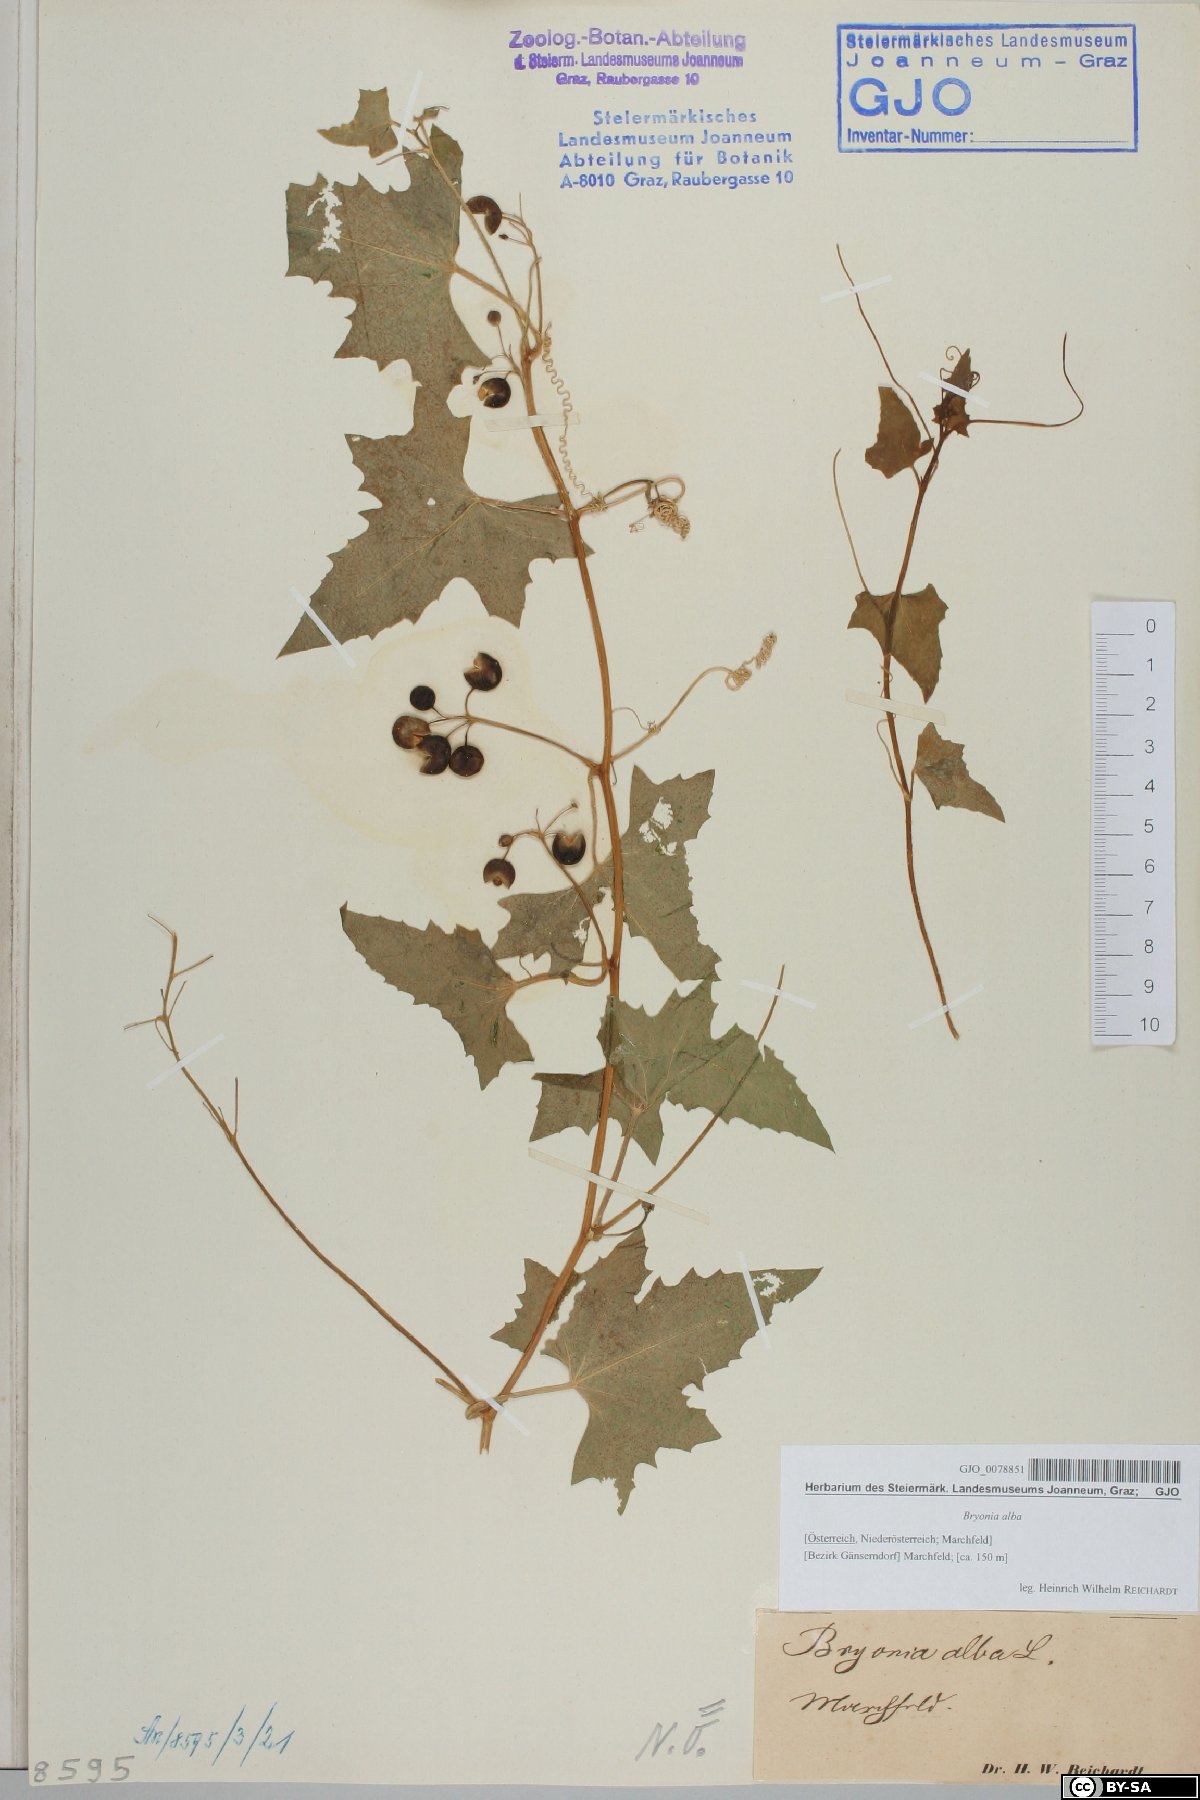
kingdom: Plantae
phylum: Tracheophyta
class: Magnoliopsida
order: Cucurbitales
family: Cucurbitaceae
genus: Bryonia
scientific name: Bryonia alba
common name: White bryony
